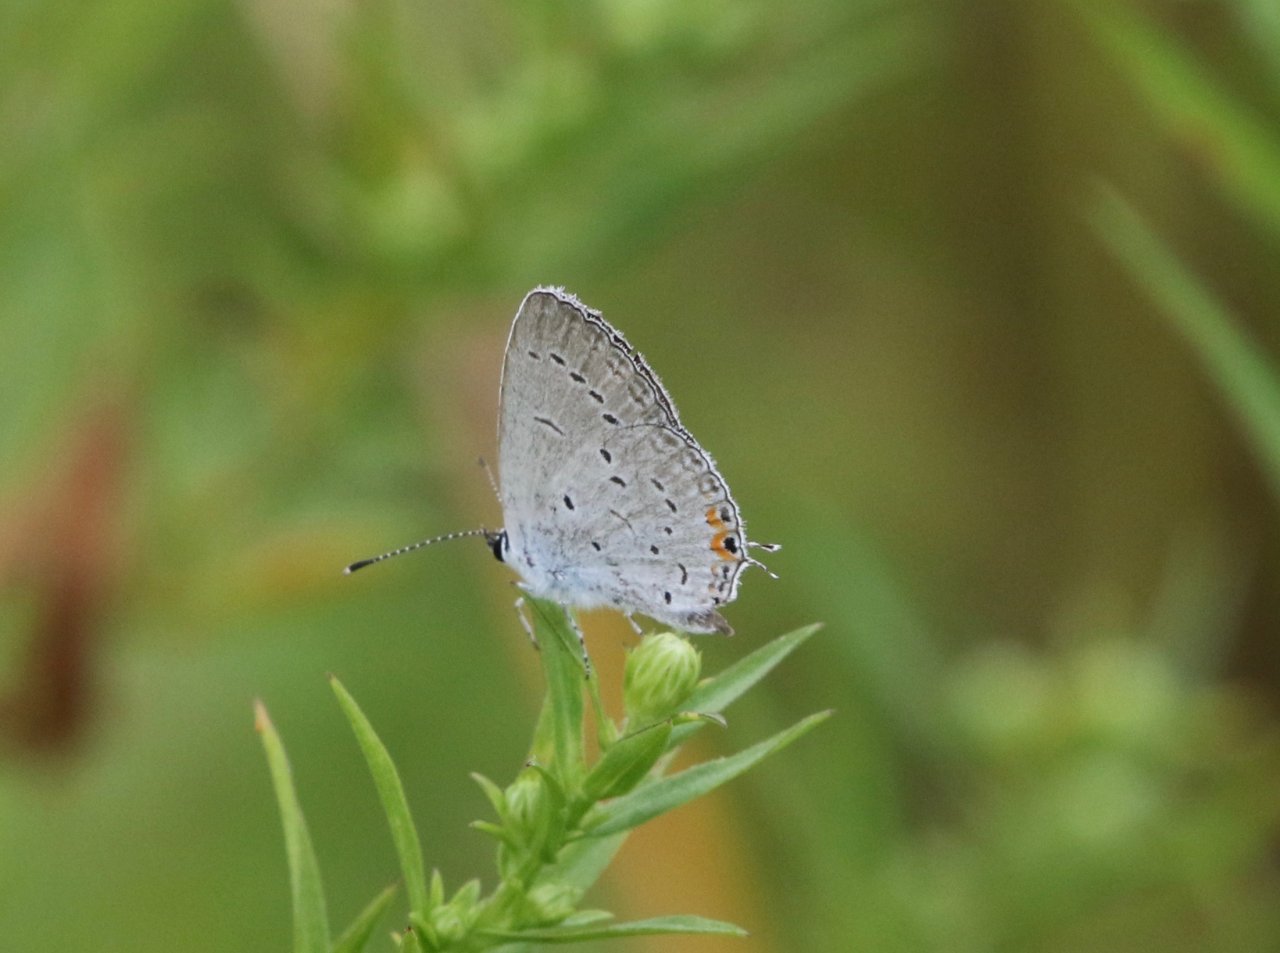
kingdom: Animalia
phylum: Arthropoda
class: Insecta
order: Lepidoptera
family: Lycaenidae
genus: Elkalyce
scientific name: Elkalyce comyntas
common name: Eastern Tailed-Blue
